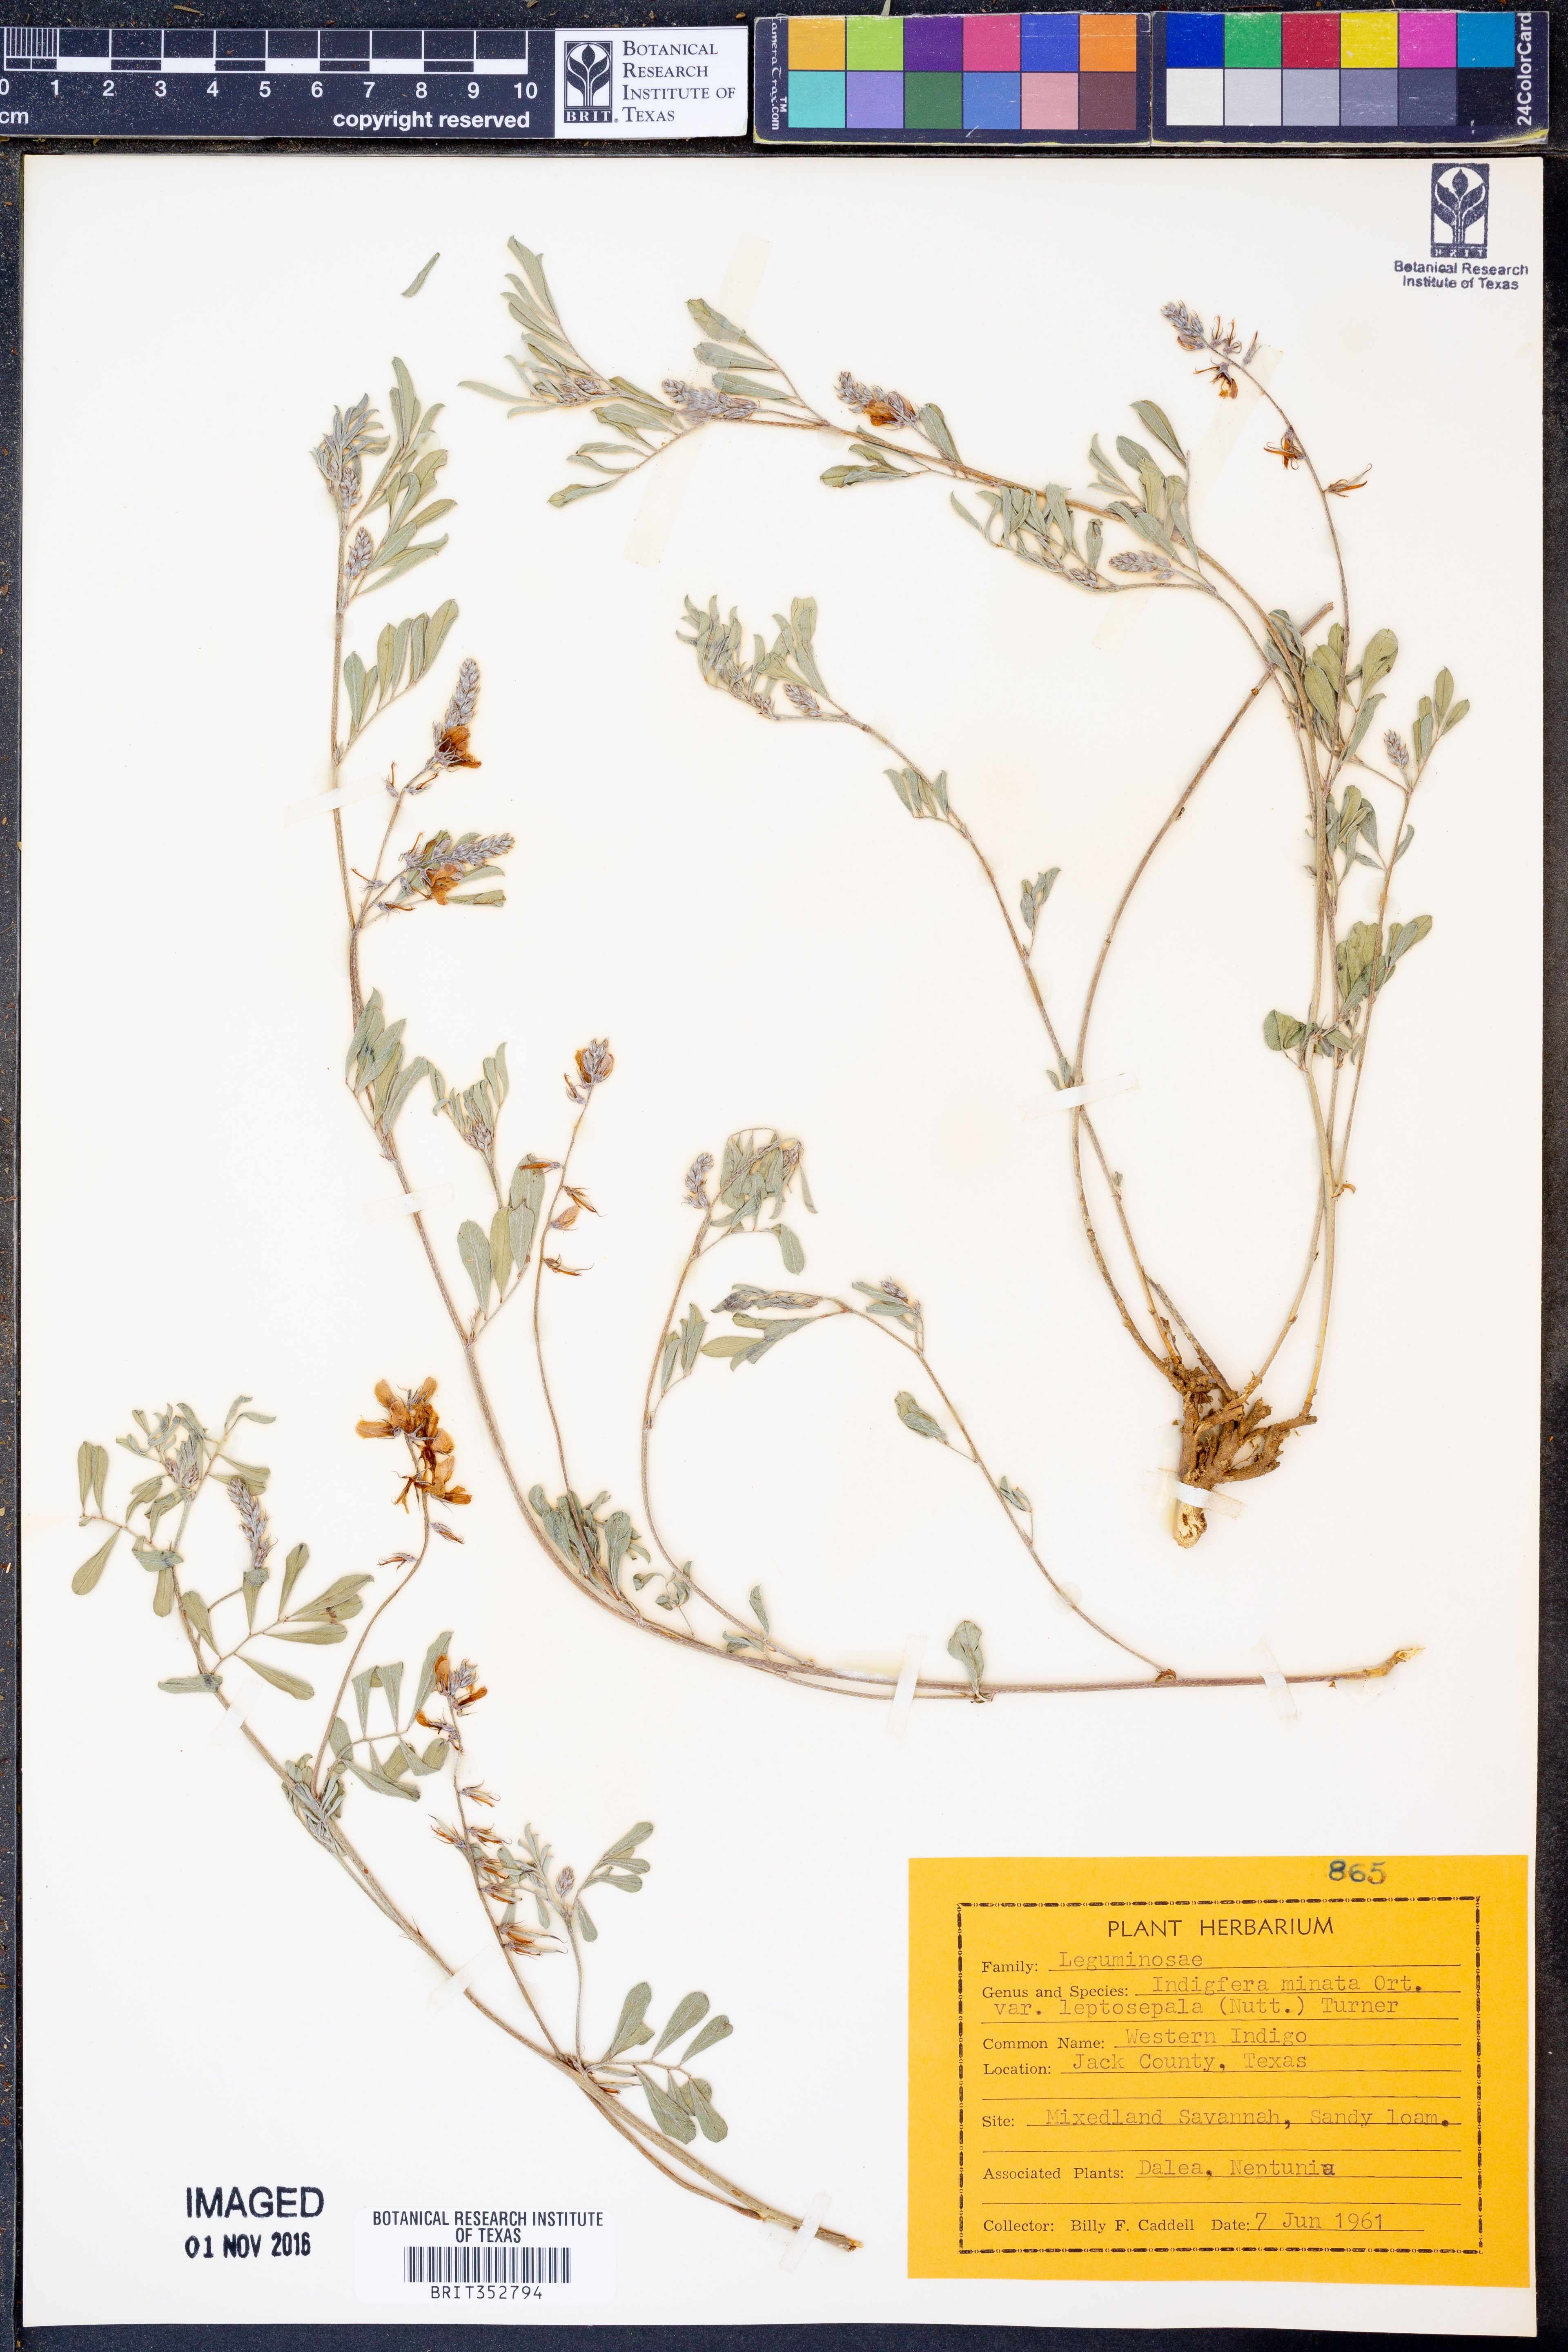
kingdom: Plantae
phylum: Tracheophyta
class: Magnoliopsida
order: Fabales
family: Fabaceae
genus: Indigofera
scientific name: Indigofera miniata
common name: Coast indigo
